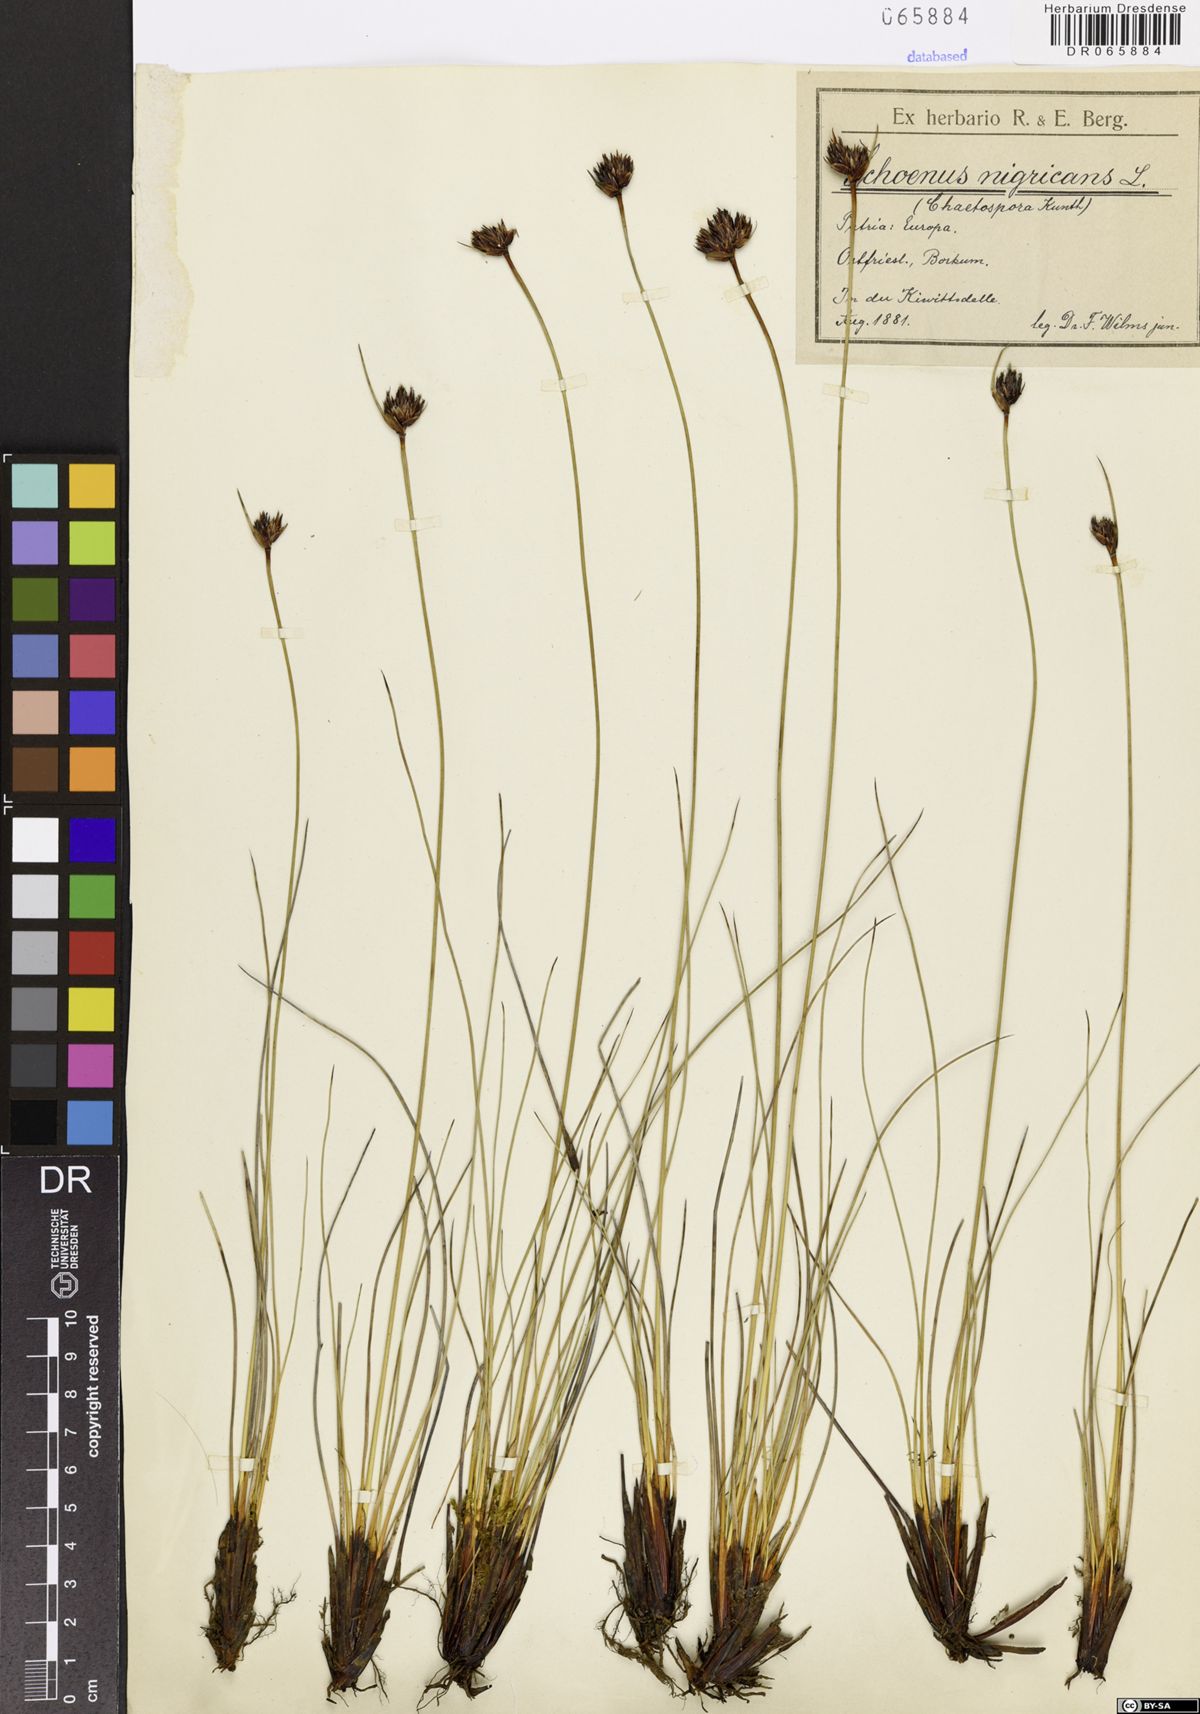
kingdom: Plantae
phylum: Tracheophyta
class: Liliopsida
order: Poales
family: Cyperaceae
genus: Schoenus
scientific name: Schoenus nigricans
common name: Black bog-rush
